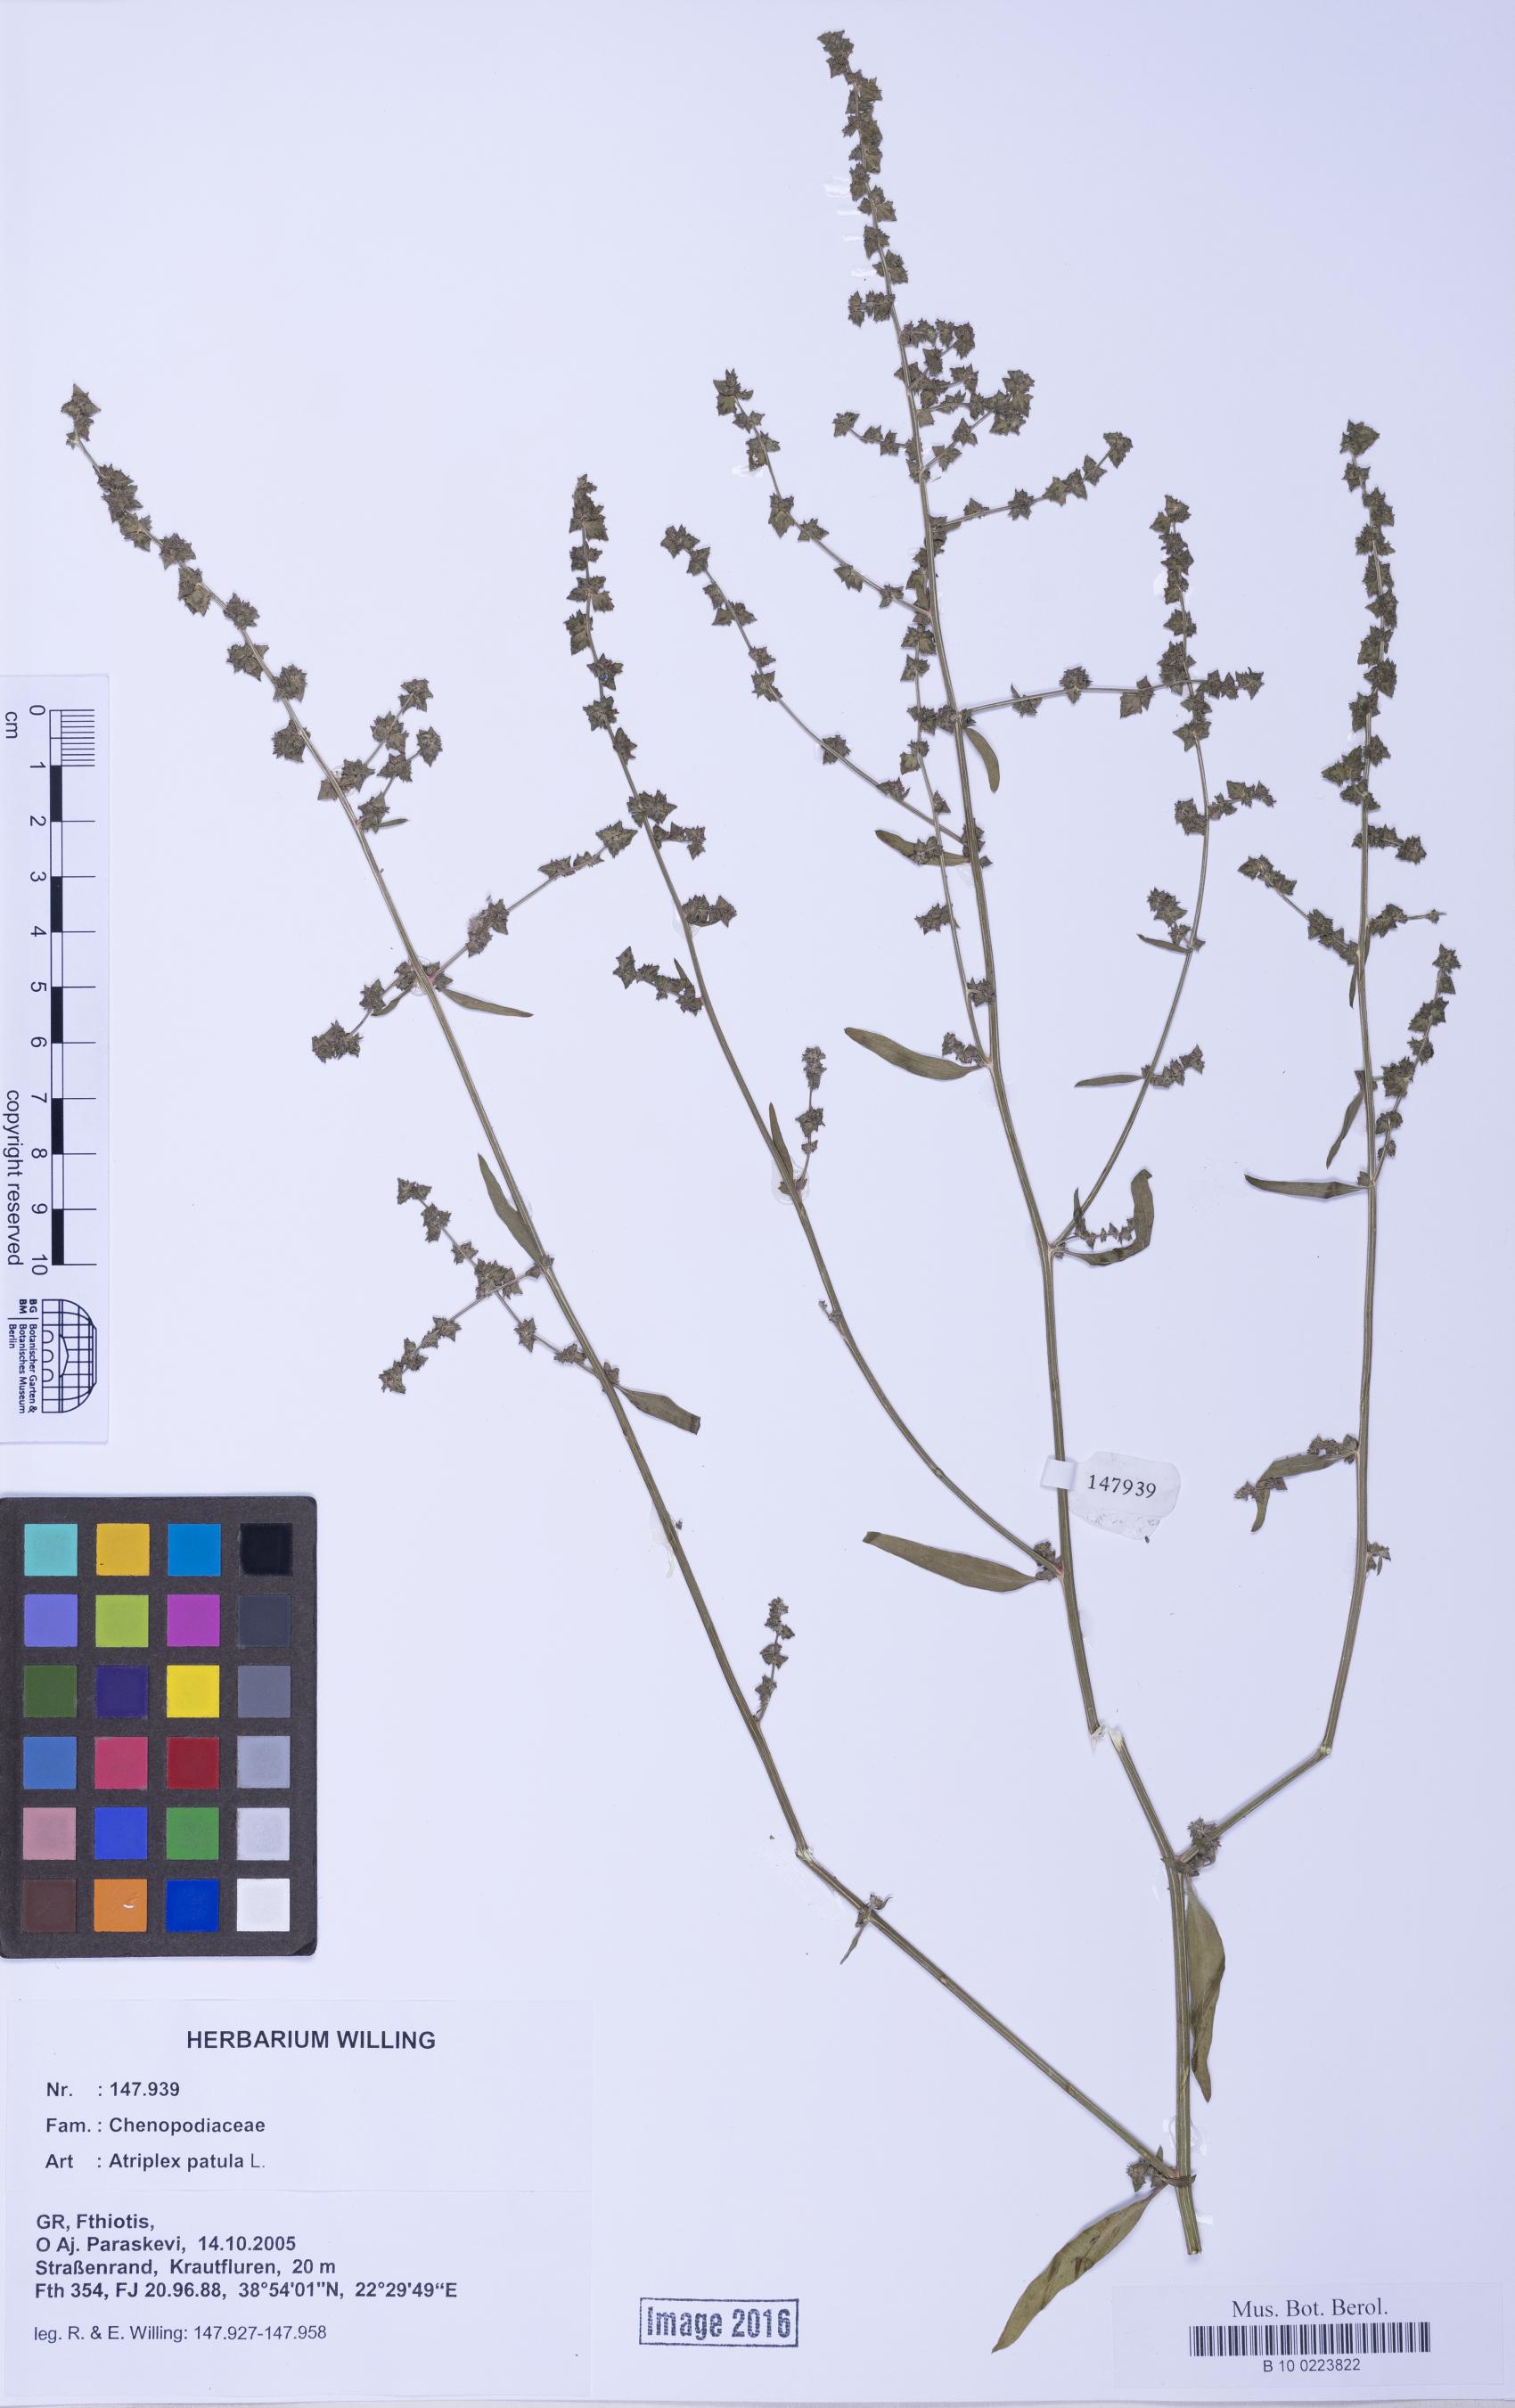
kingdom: Plantae
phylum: Tracheophyta
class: Magnoliopsida
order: Caryophyllales
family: Amaranthaceae
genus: Atriplex
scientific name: Atriplex patula
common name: Common orache
